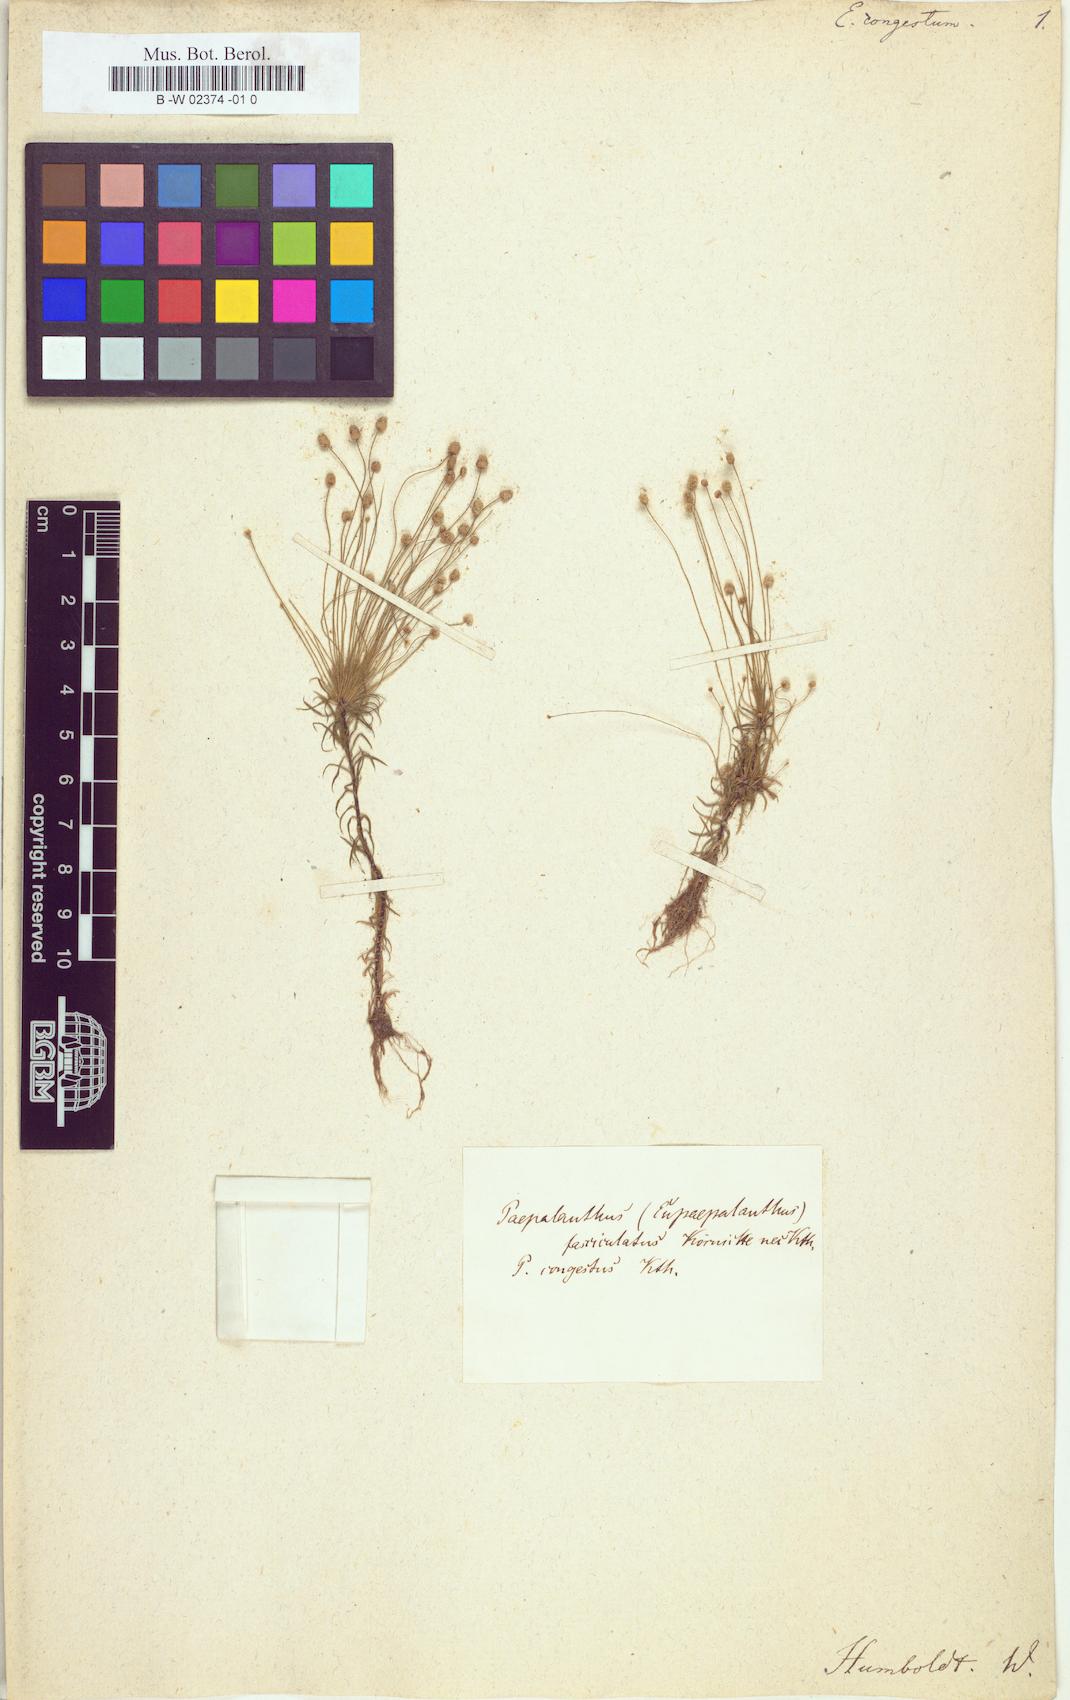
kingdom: Plantae
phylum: Tracheophyta
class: Liliopsida
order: Poales
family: Eriocaulaceae
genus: Paepalanthus
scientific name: Paepalanthus fasciculatus
